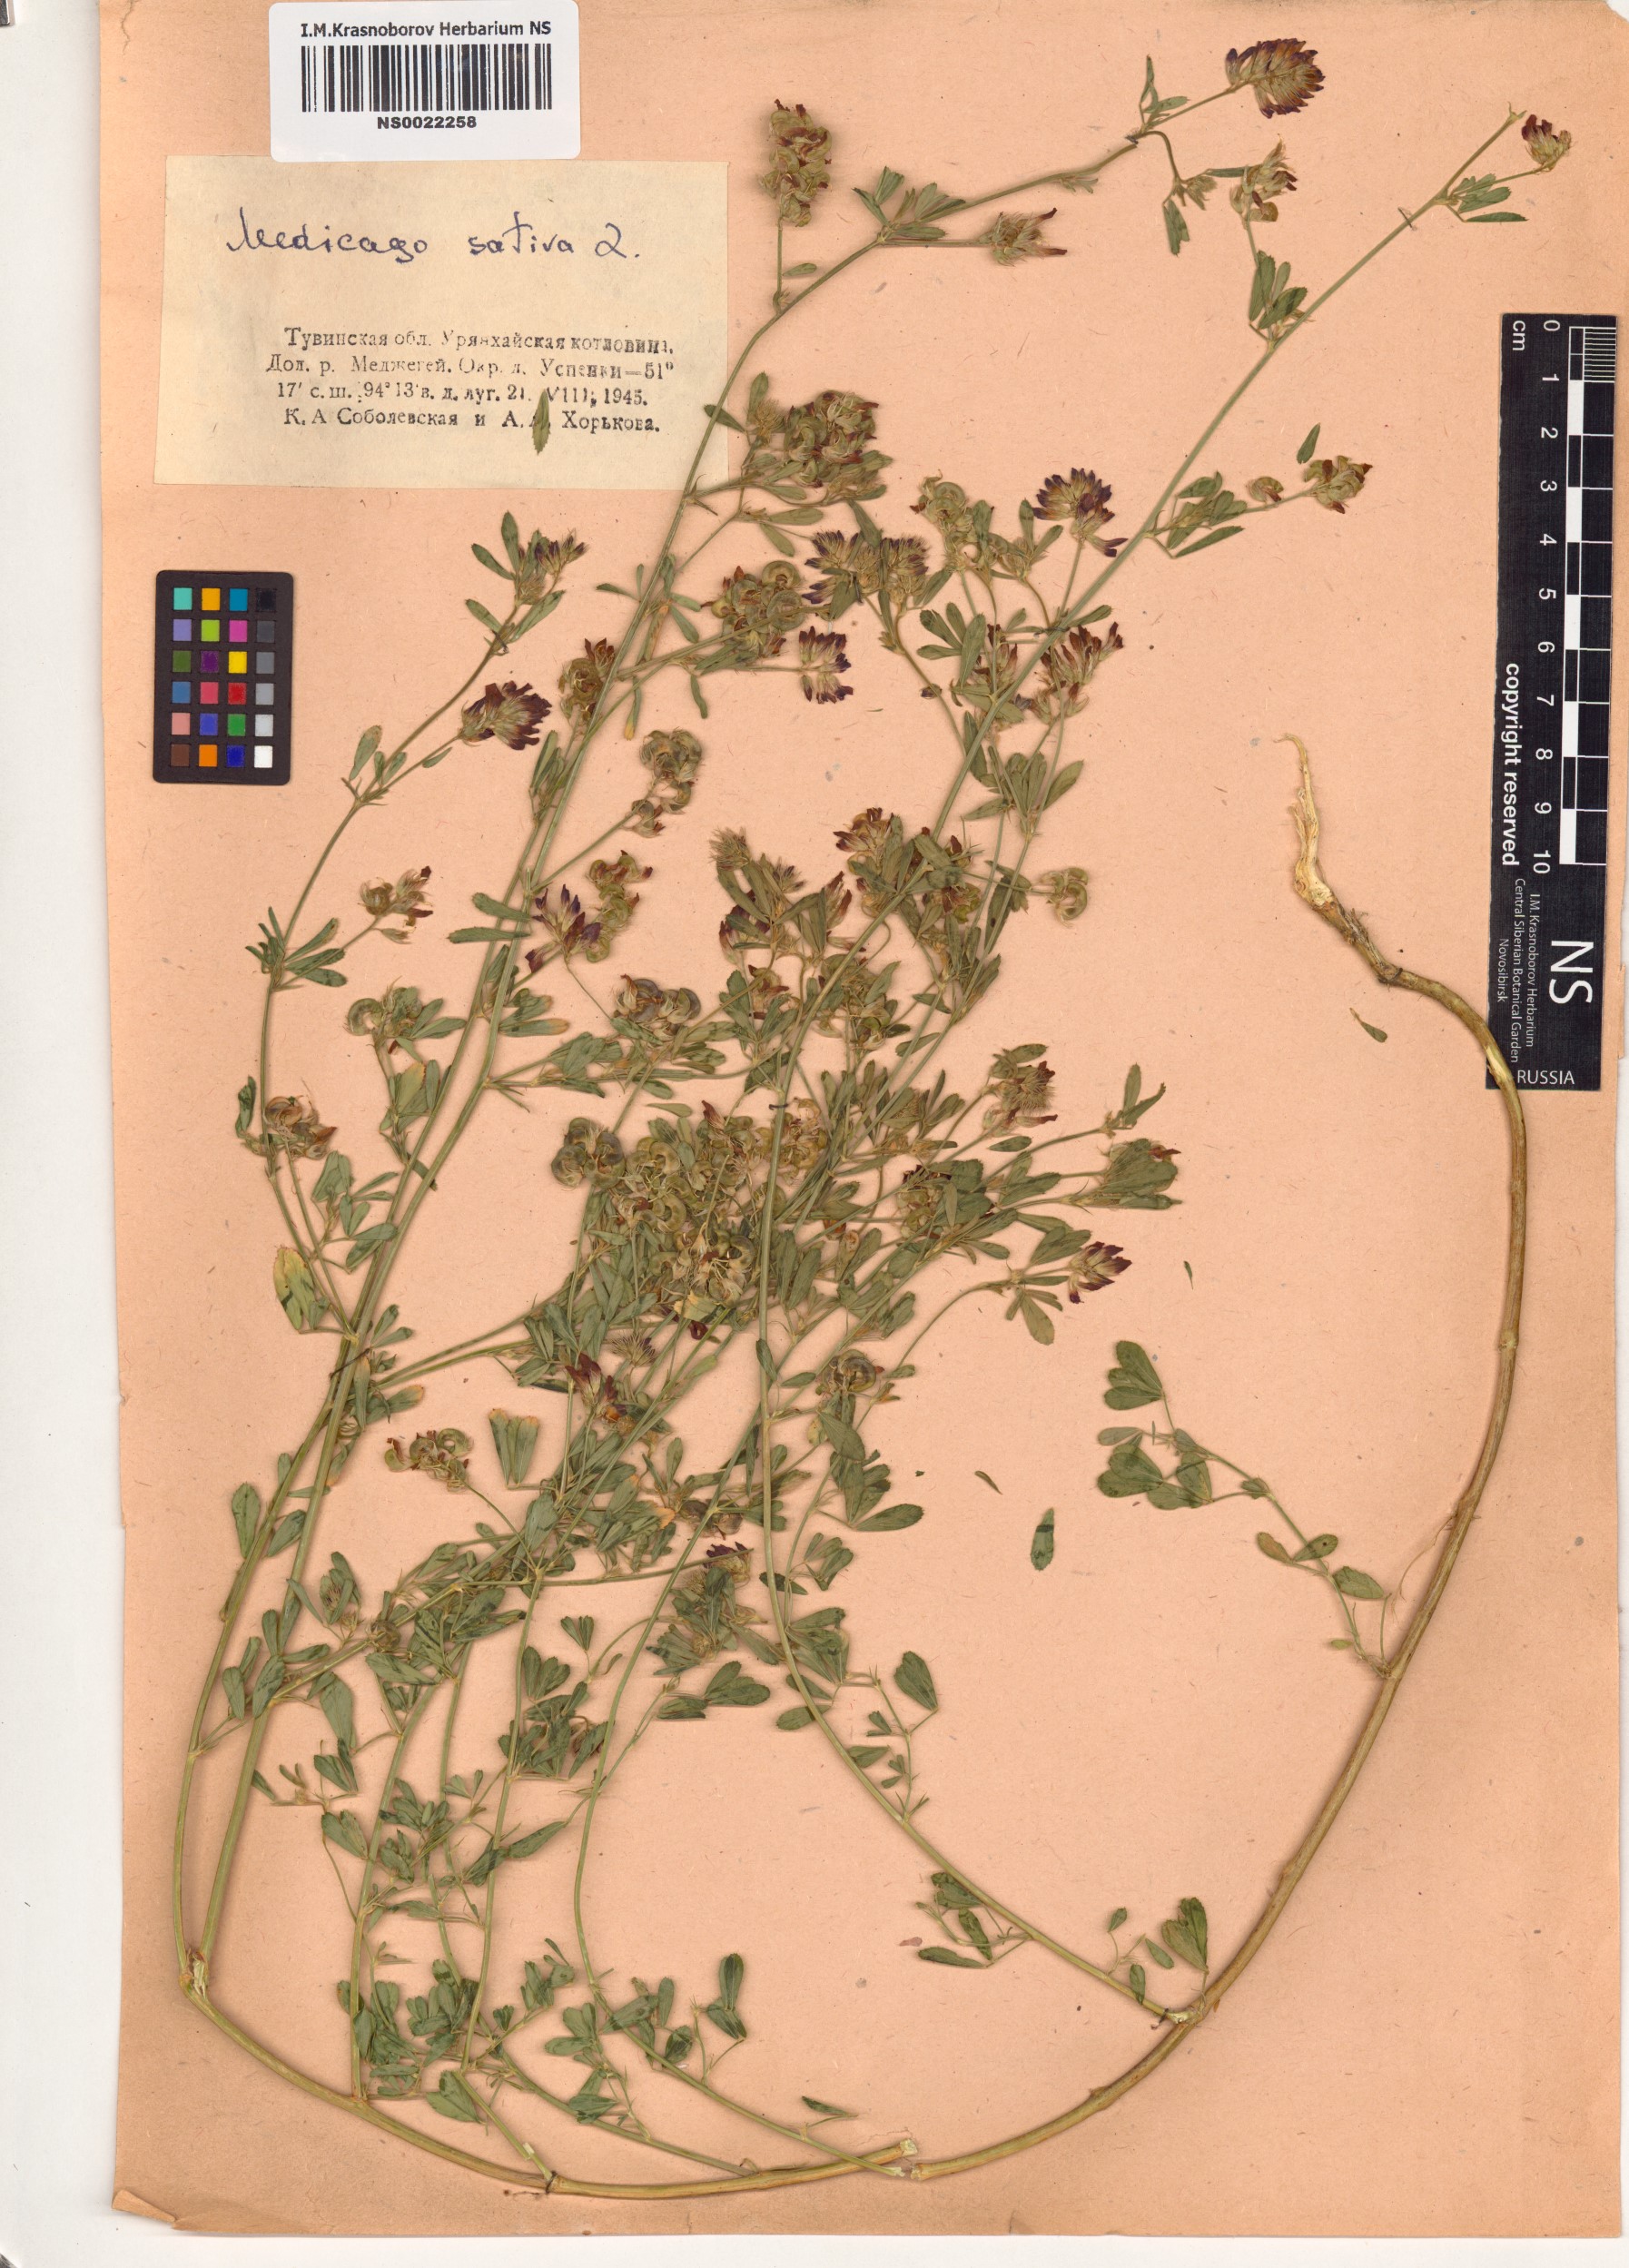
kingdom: Plantae
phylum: Tracheophyta
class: Magnoliopsida
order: Fabales
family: Fabaceae
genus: Medicago
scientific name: Medicago sativa
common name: Alfalfa
